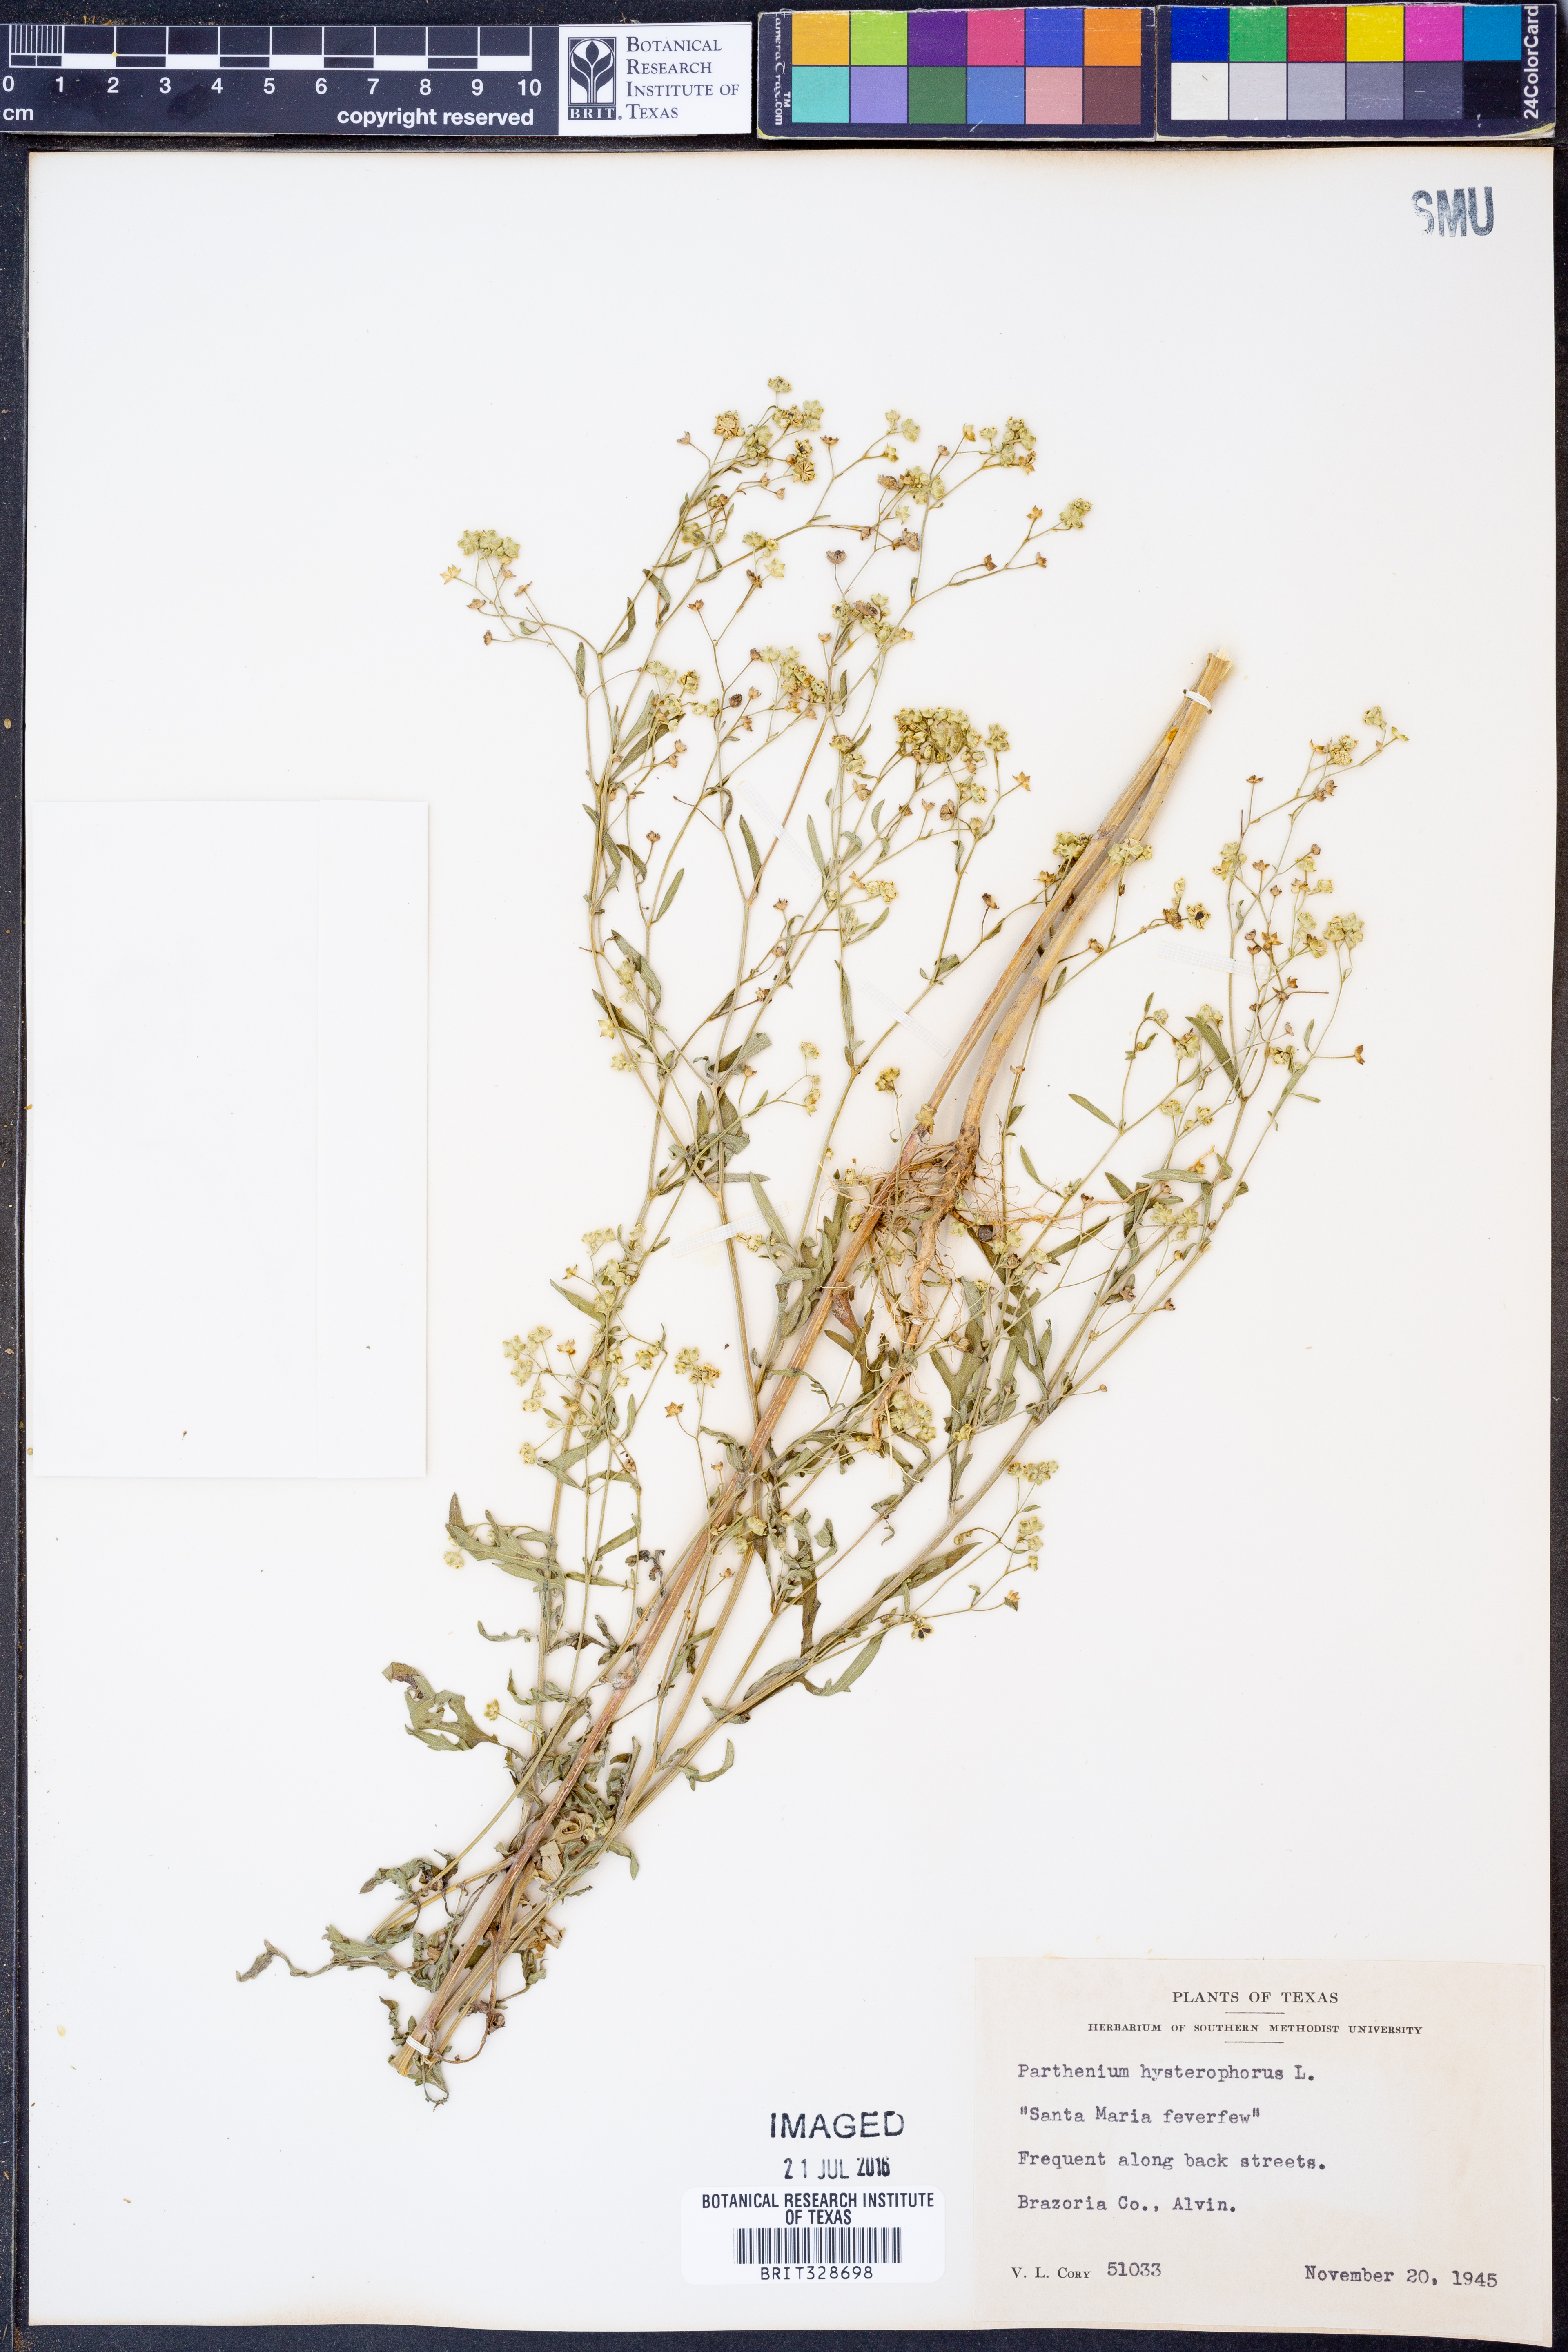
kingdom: Plantae
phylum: Tracheophyta
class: Magnoliopsida
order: Asterales
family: Asteraceae
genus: Parthenium
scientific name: Parthenium hysterophorus
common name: Santa maria feverfew
